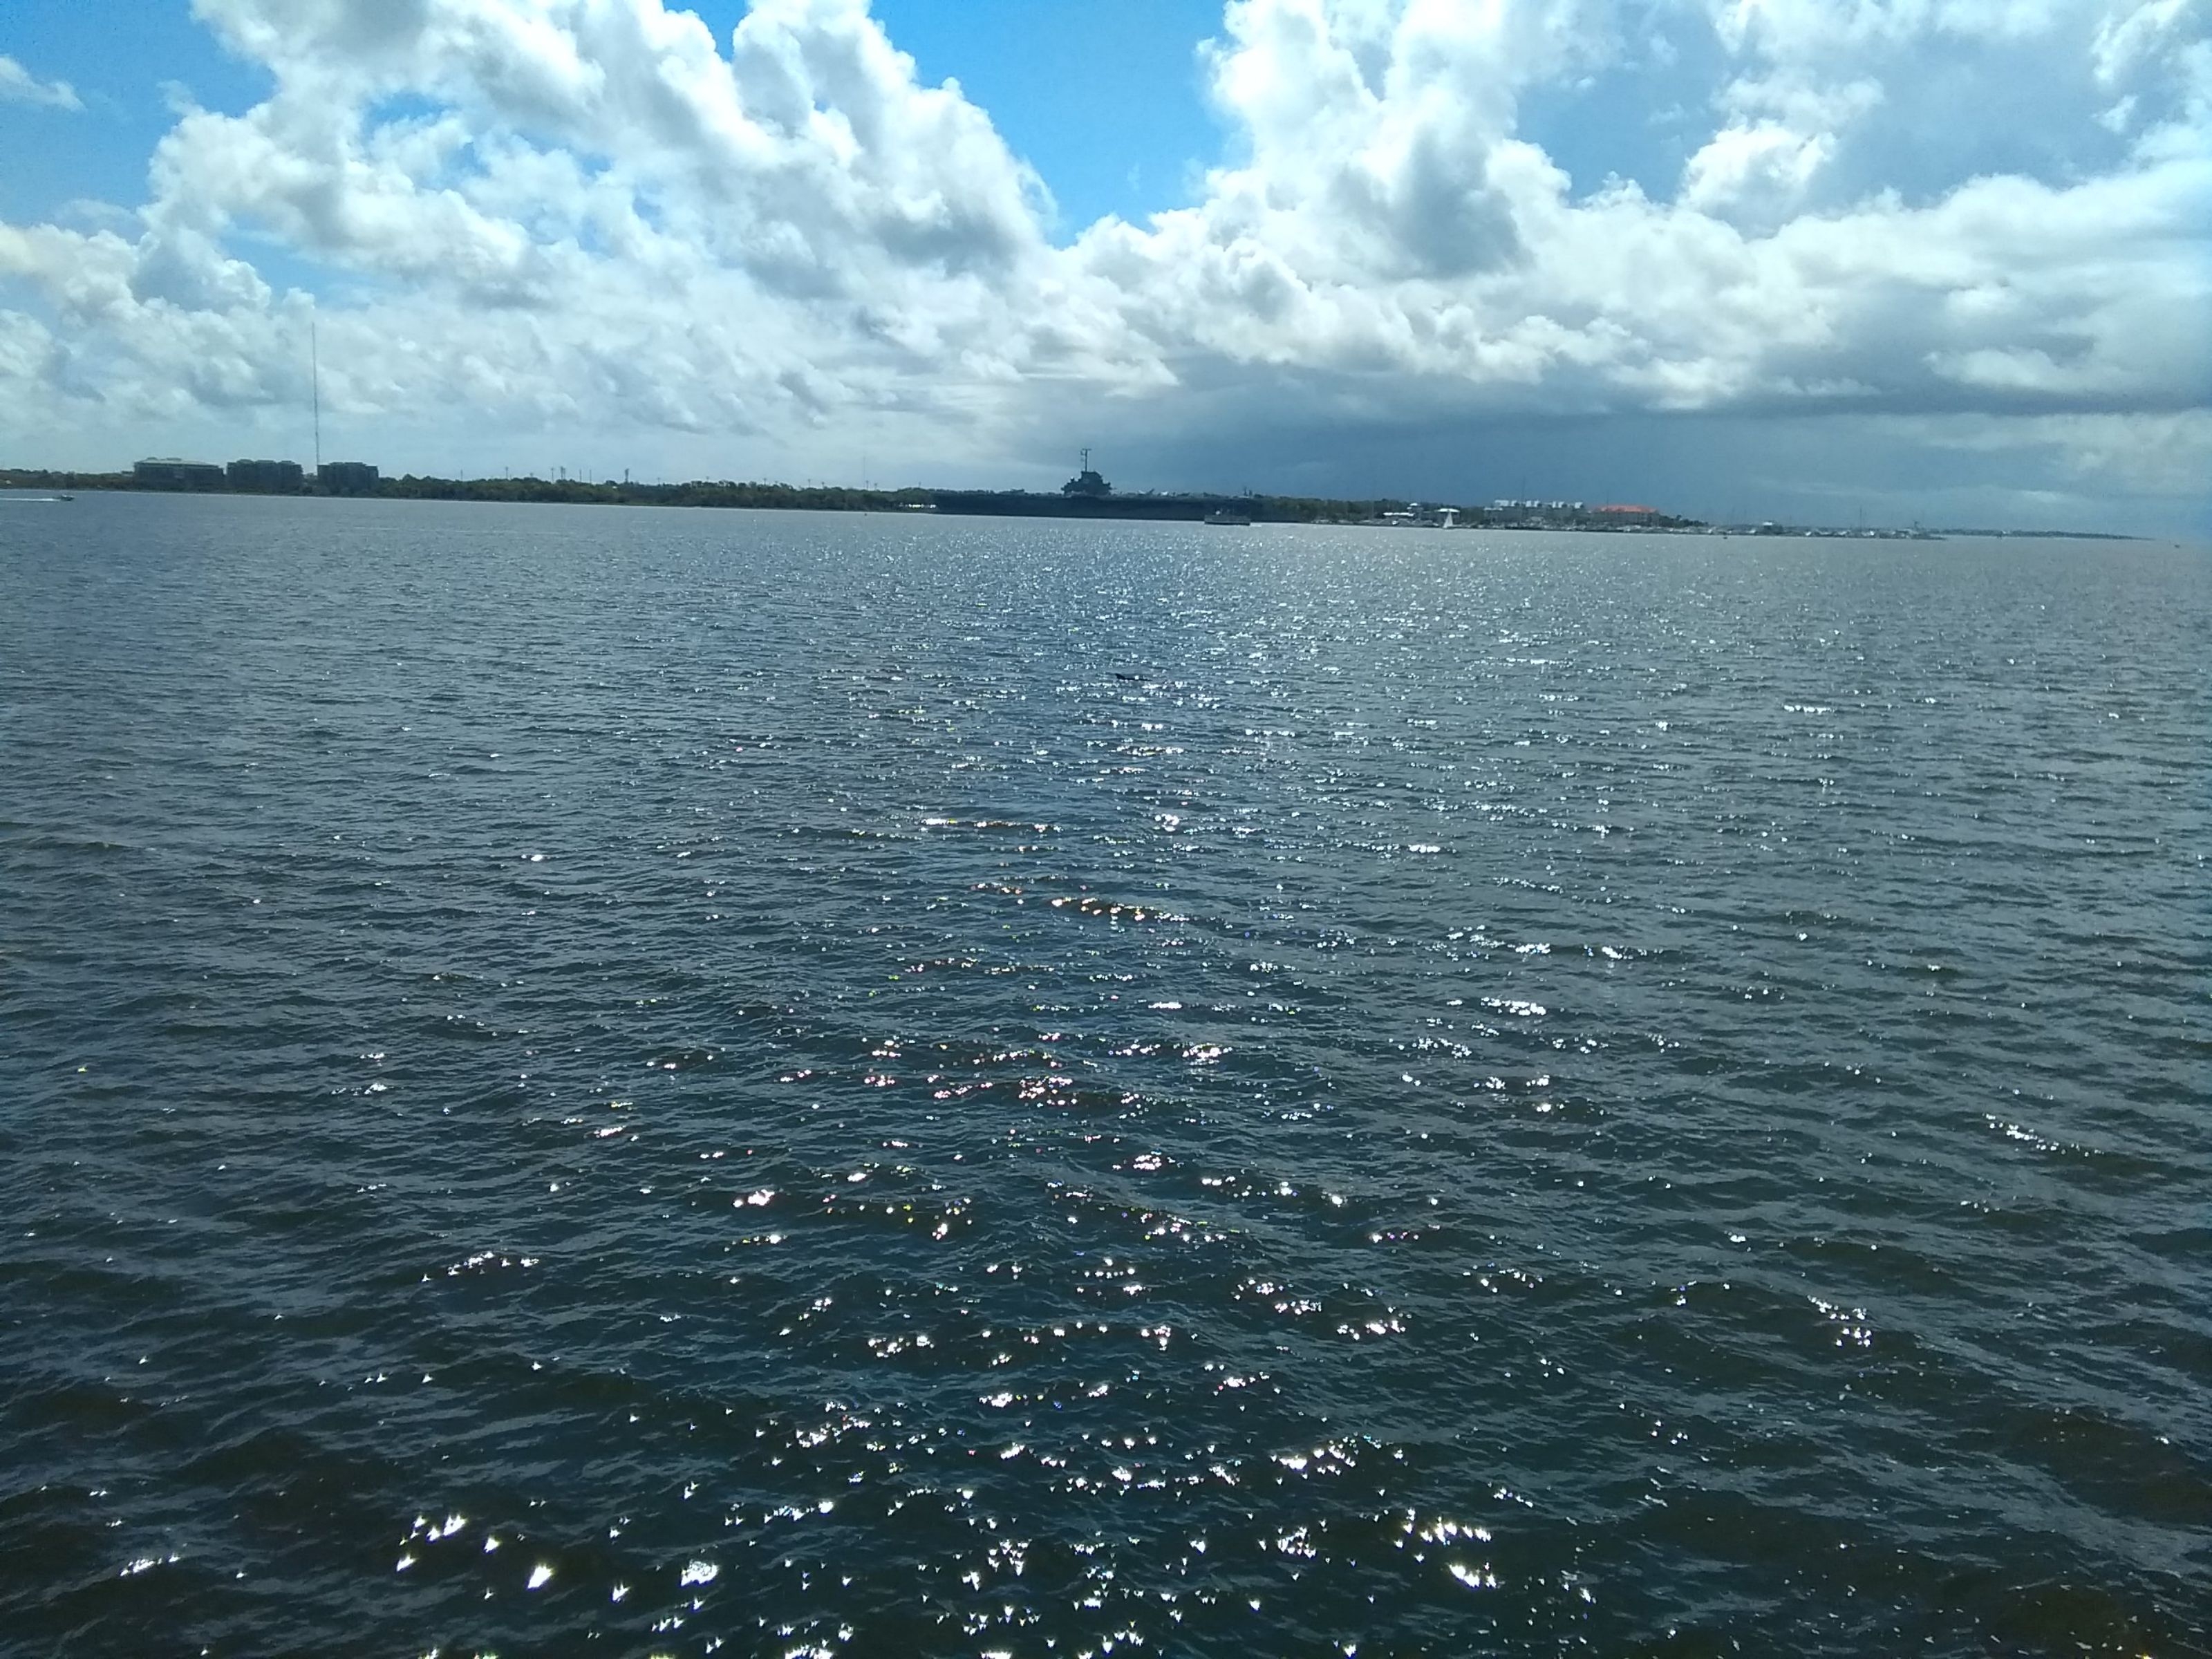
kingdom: Animalia
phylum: Chordata
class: Mammalia
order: Cetacea
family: Delphinidae
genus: Tursiops
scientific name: Tursiops truncatus
